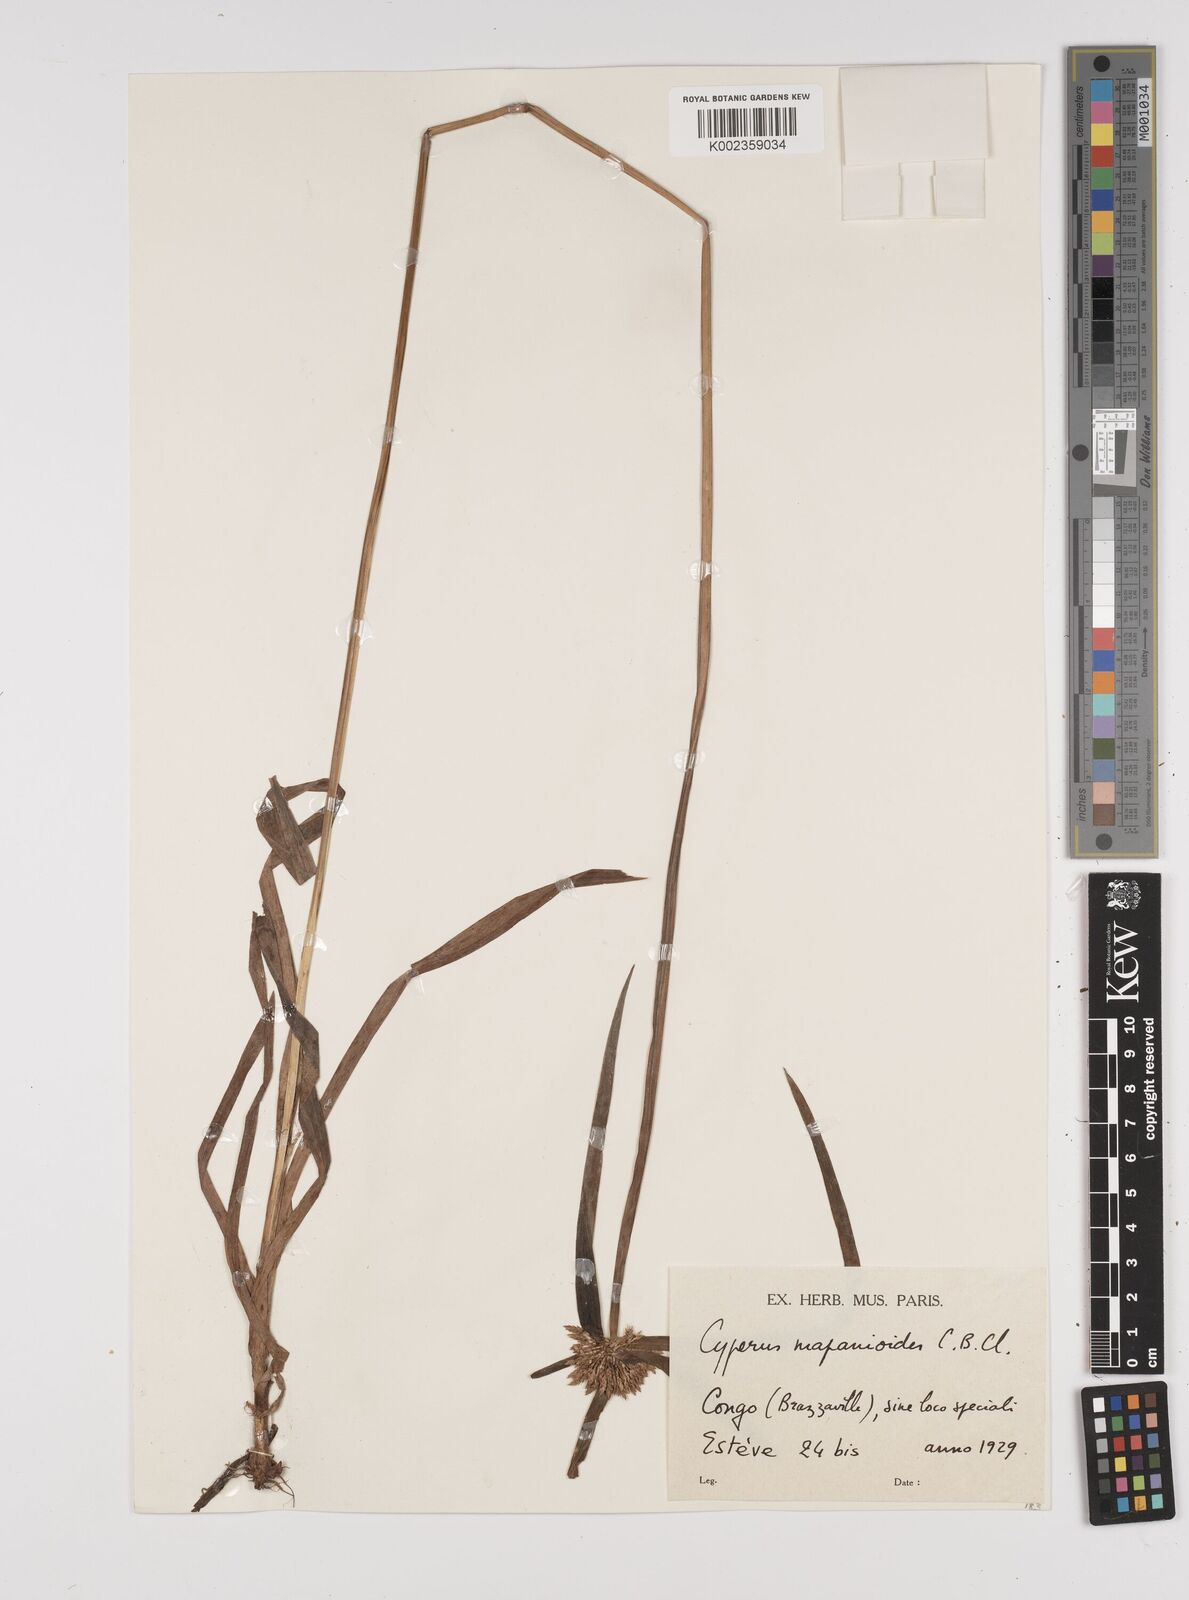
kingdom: Plantae
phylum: Tracheophyta
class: Liliopsida
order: Poales
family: Cyperaceae
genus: Cyperus
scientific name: Cyperus mapanioides
